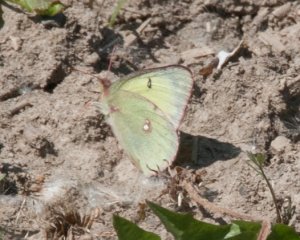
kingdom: Animalia
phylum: Arthropoda
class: Insecta
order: Lepidoptera
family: Pieridae
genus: Colias
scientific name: Colias philodice
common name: Clouded Sulphur
